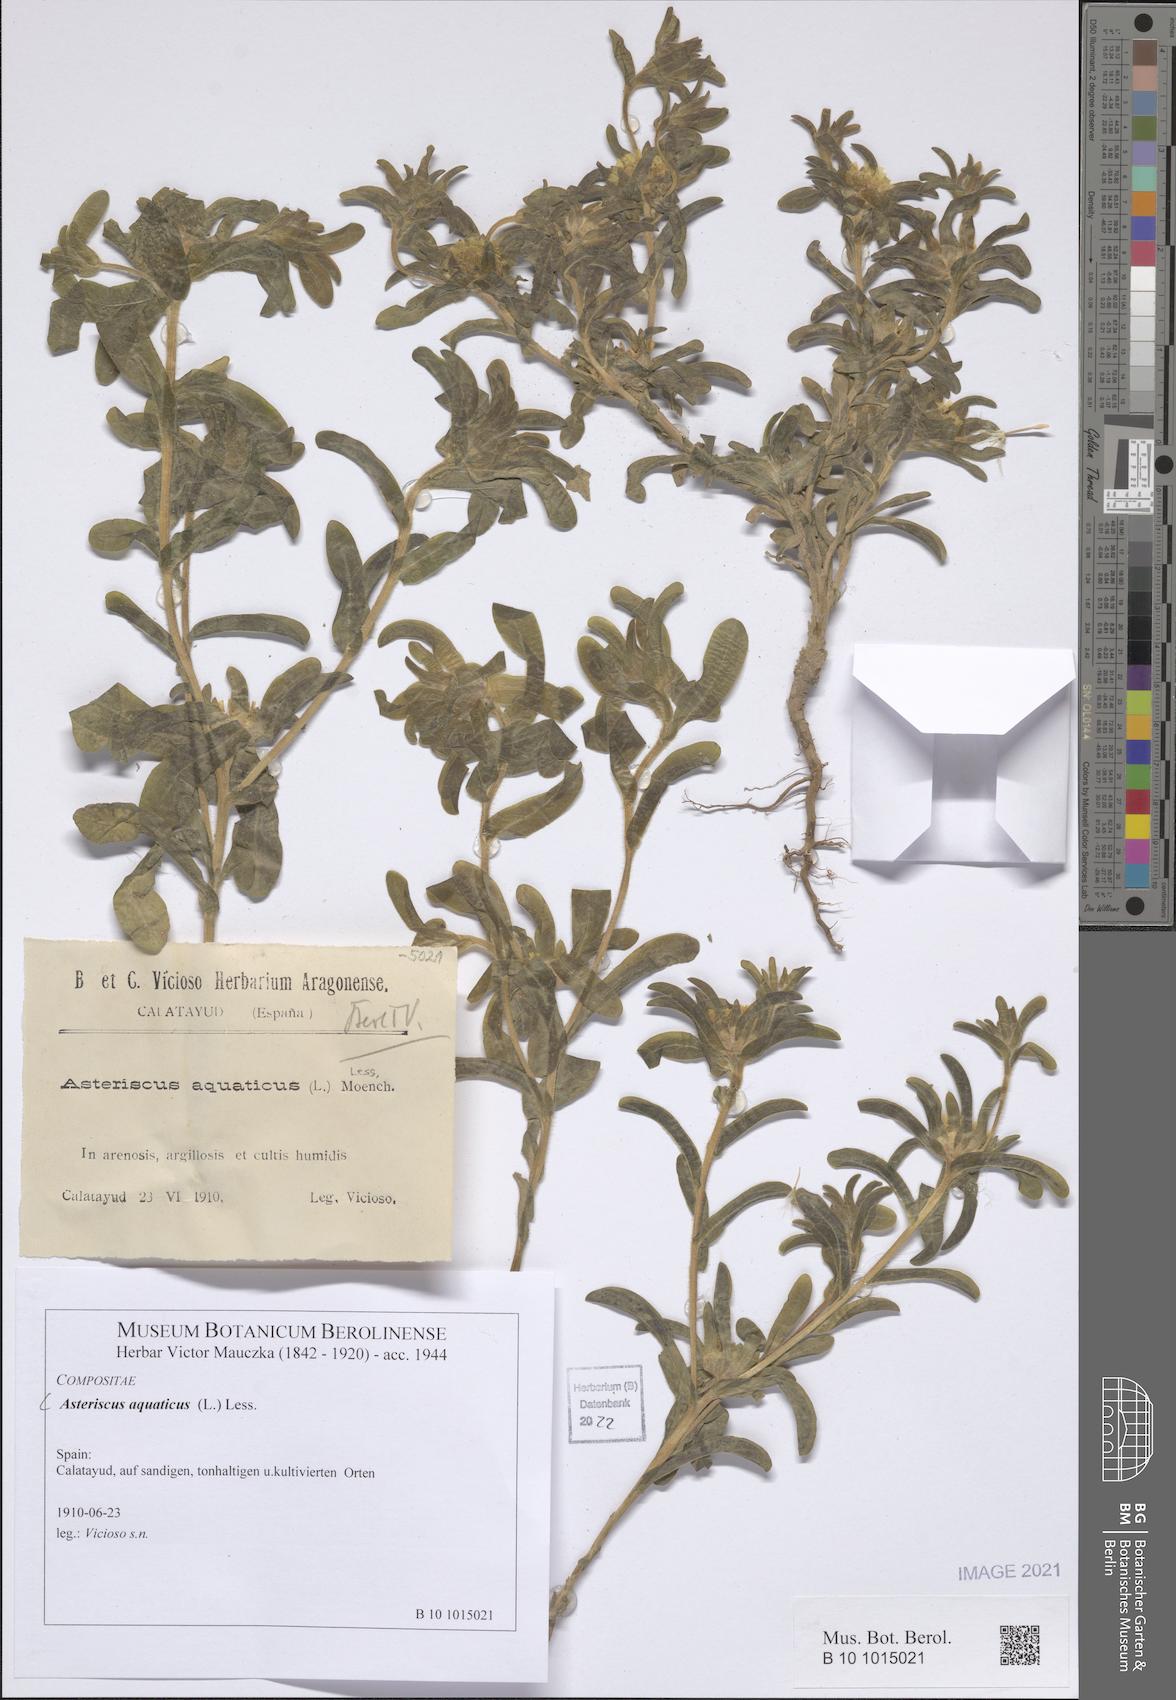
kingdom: Plantae
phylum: Tracheophyta
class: Magnoliopsida
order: Asterales
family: Asteraceae
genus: Asteriscus
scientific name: Asteriscus aquaticus
